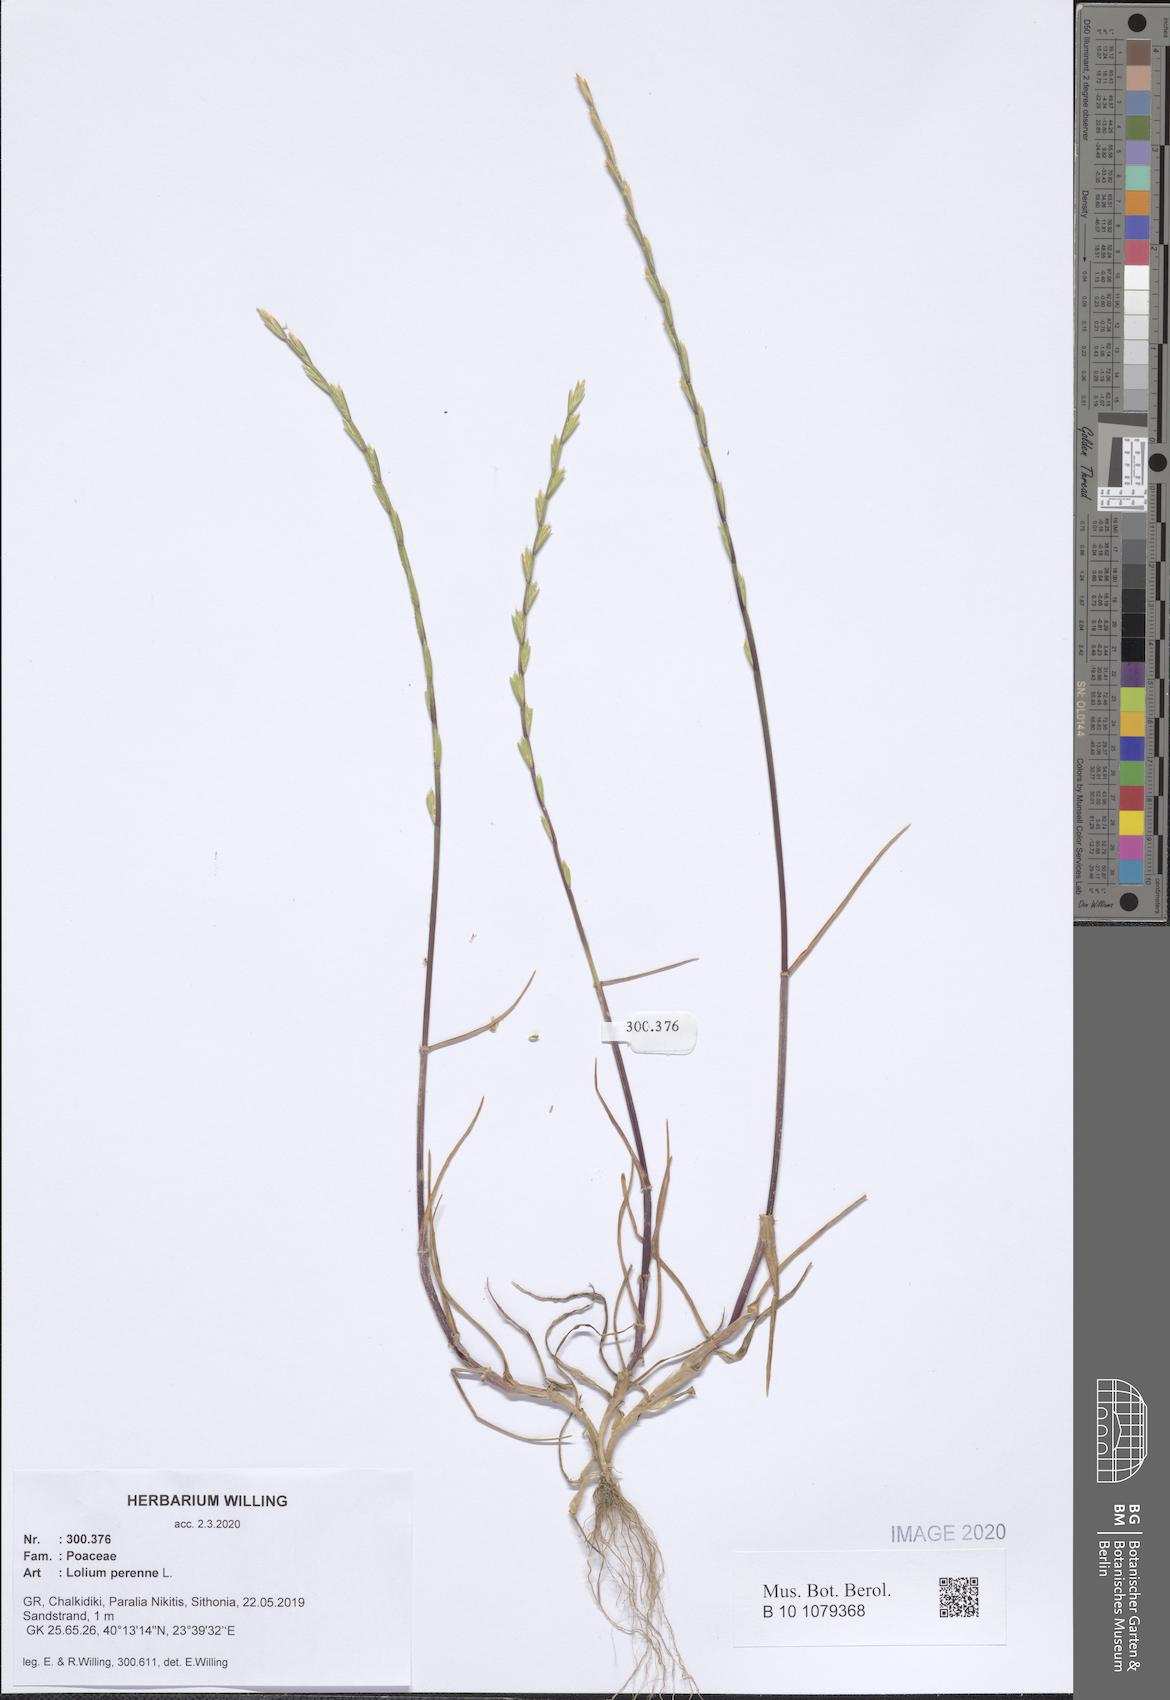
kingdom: Plantae
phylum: Tracheophyta
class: Liliopsida
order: Poales
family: Poaceae
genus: Lolium
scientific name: Lolium perenne
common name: Perennial ryegrass
